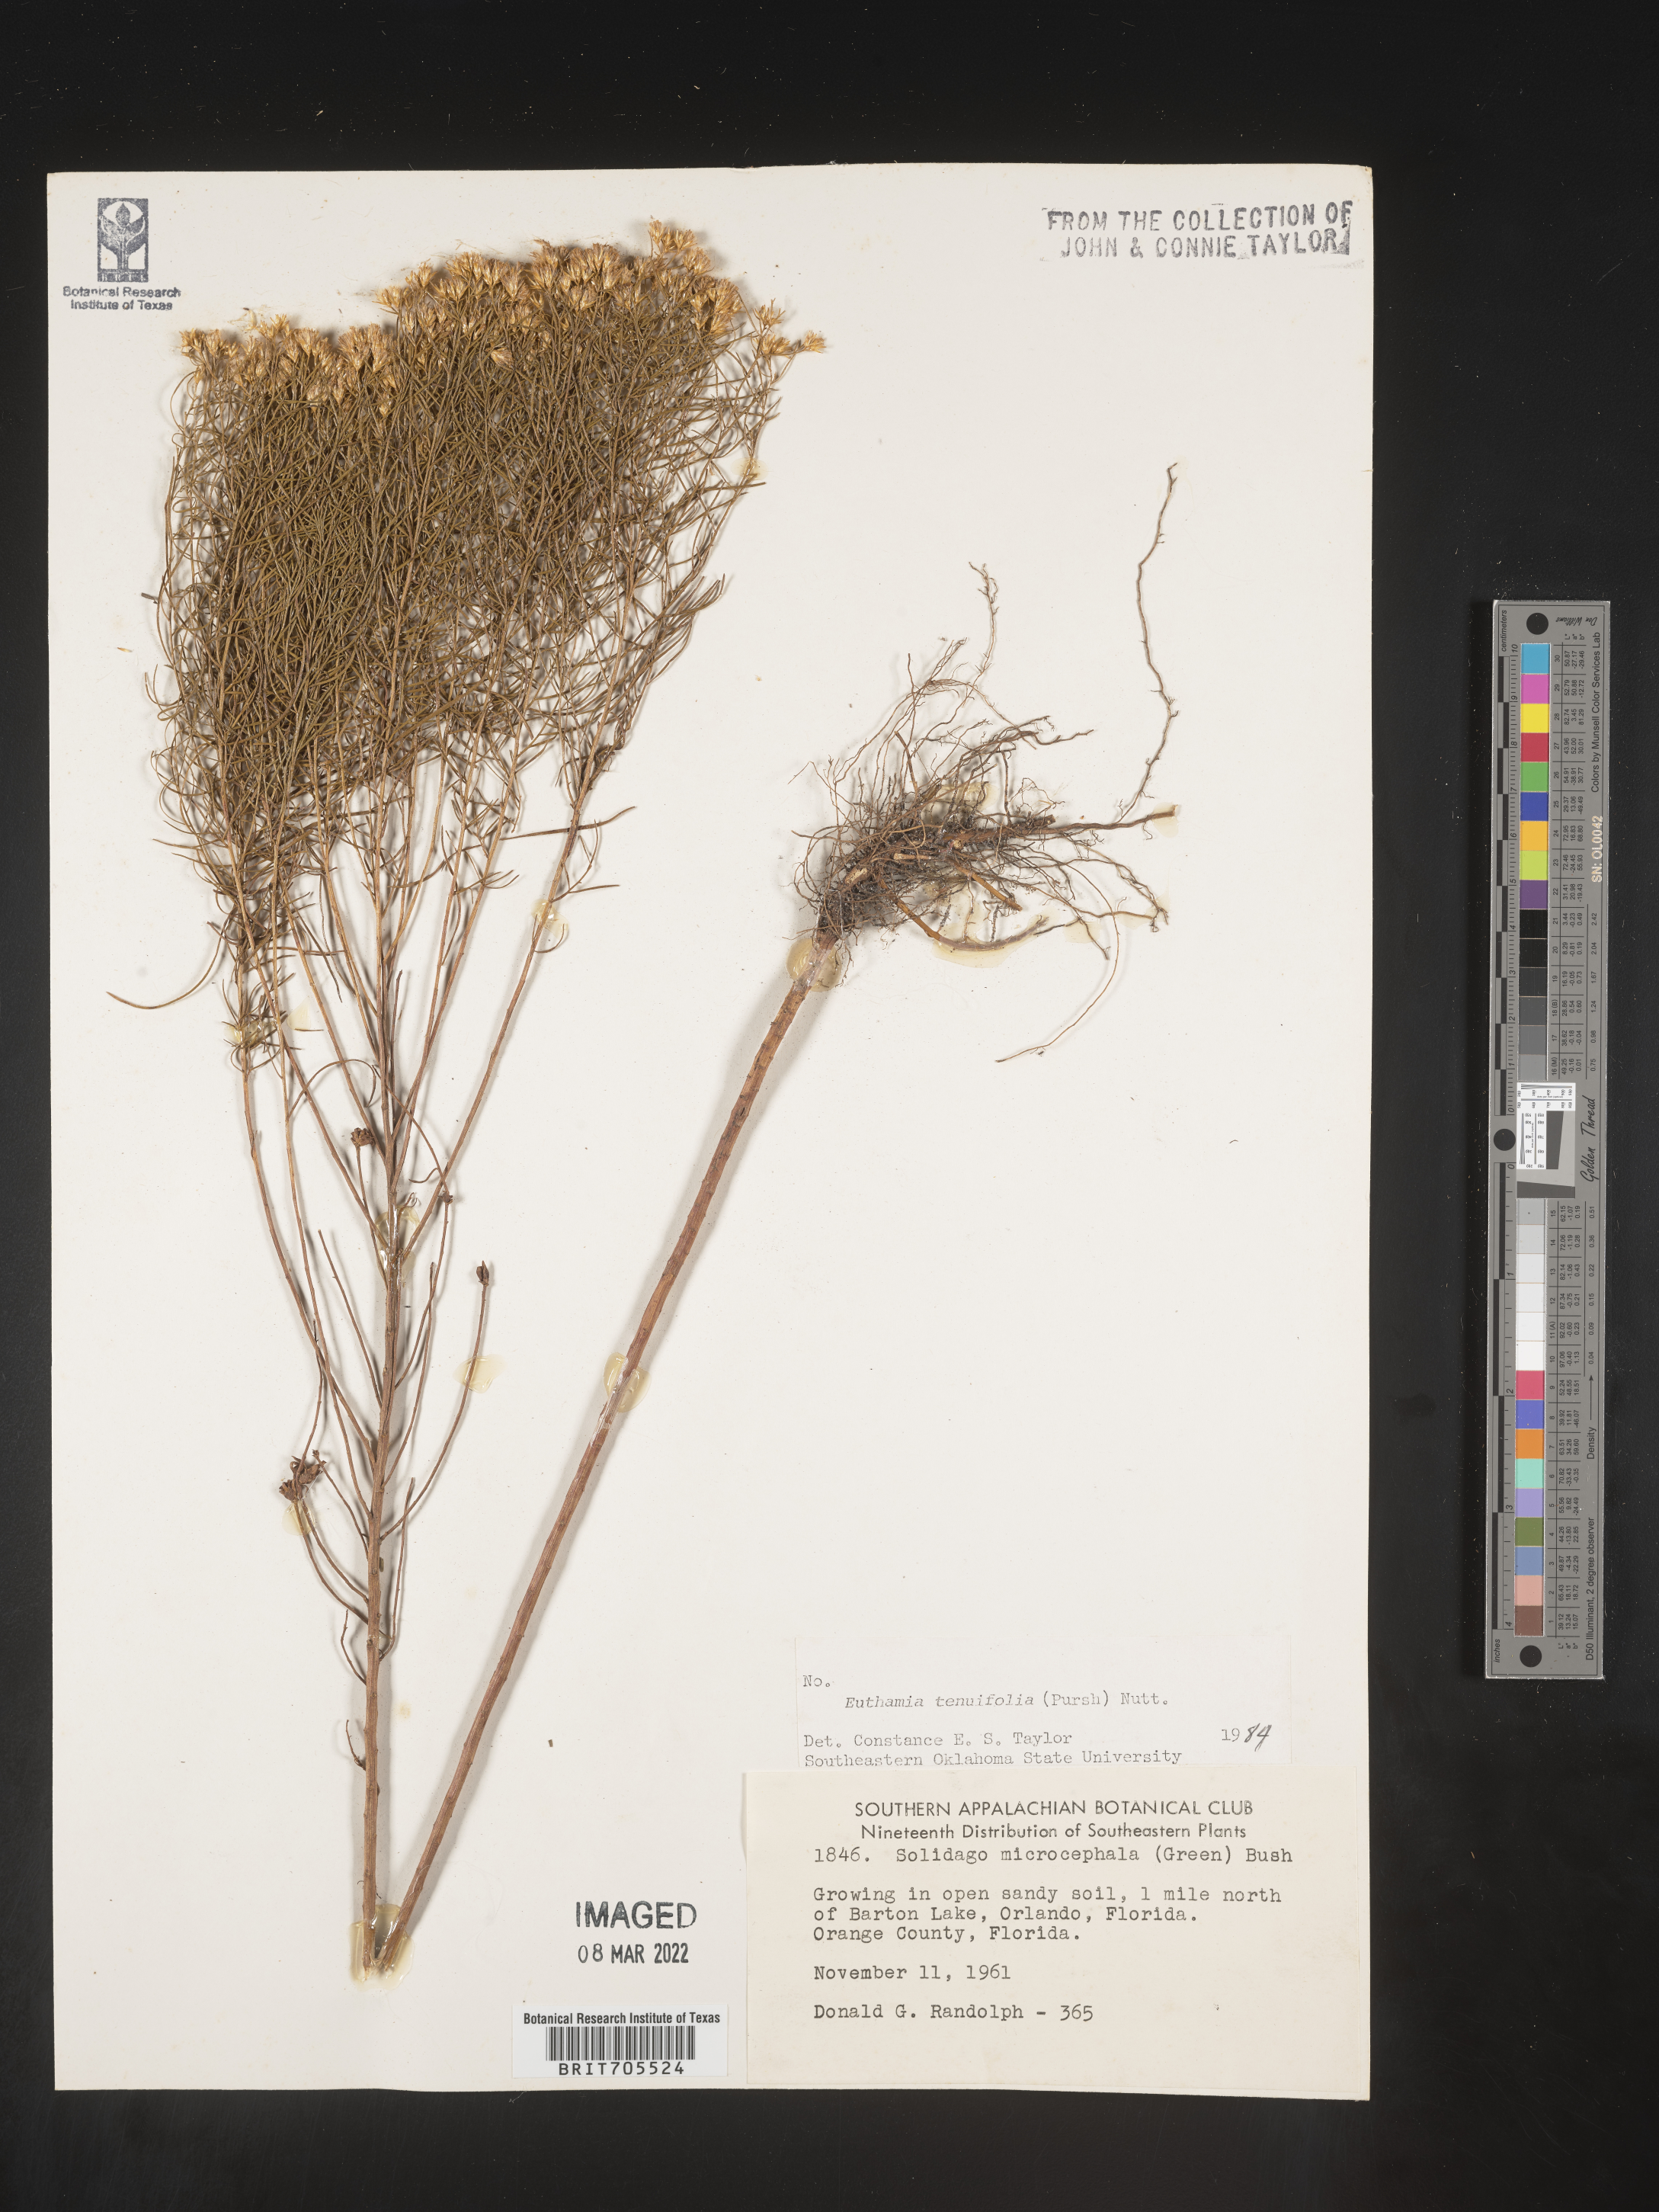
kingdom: Plantae
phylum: Tracheophyta
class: Magnoliopsida
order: Asterales
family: Asteraceae
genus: Euthamia
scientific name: Euthamia caroliniana
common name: Coastal plain goldentop
